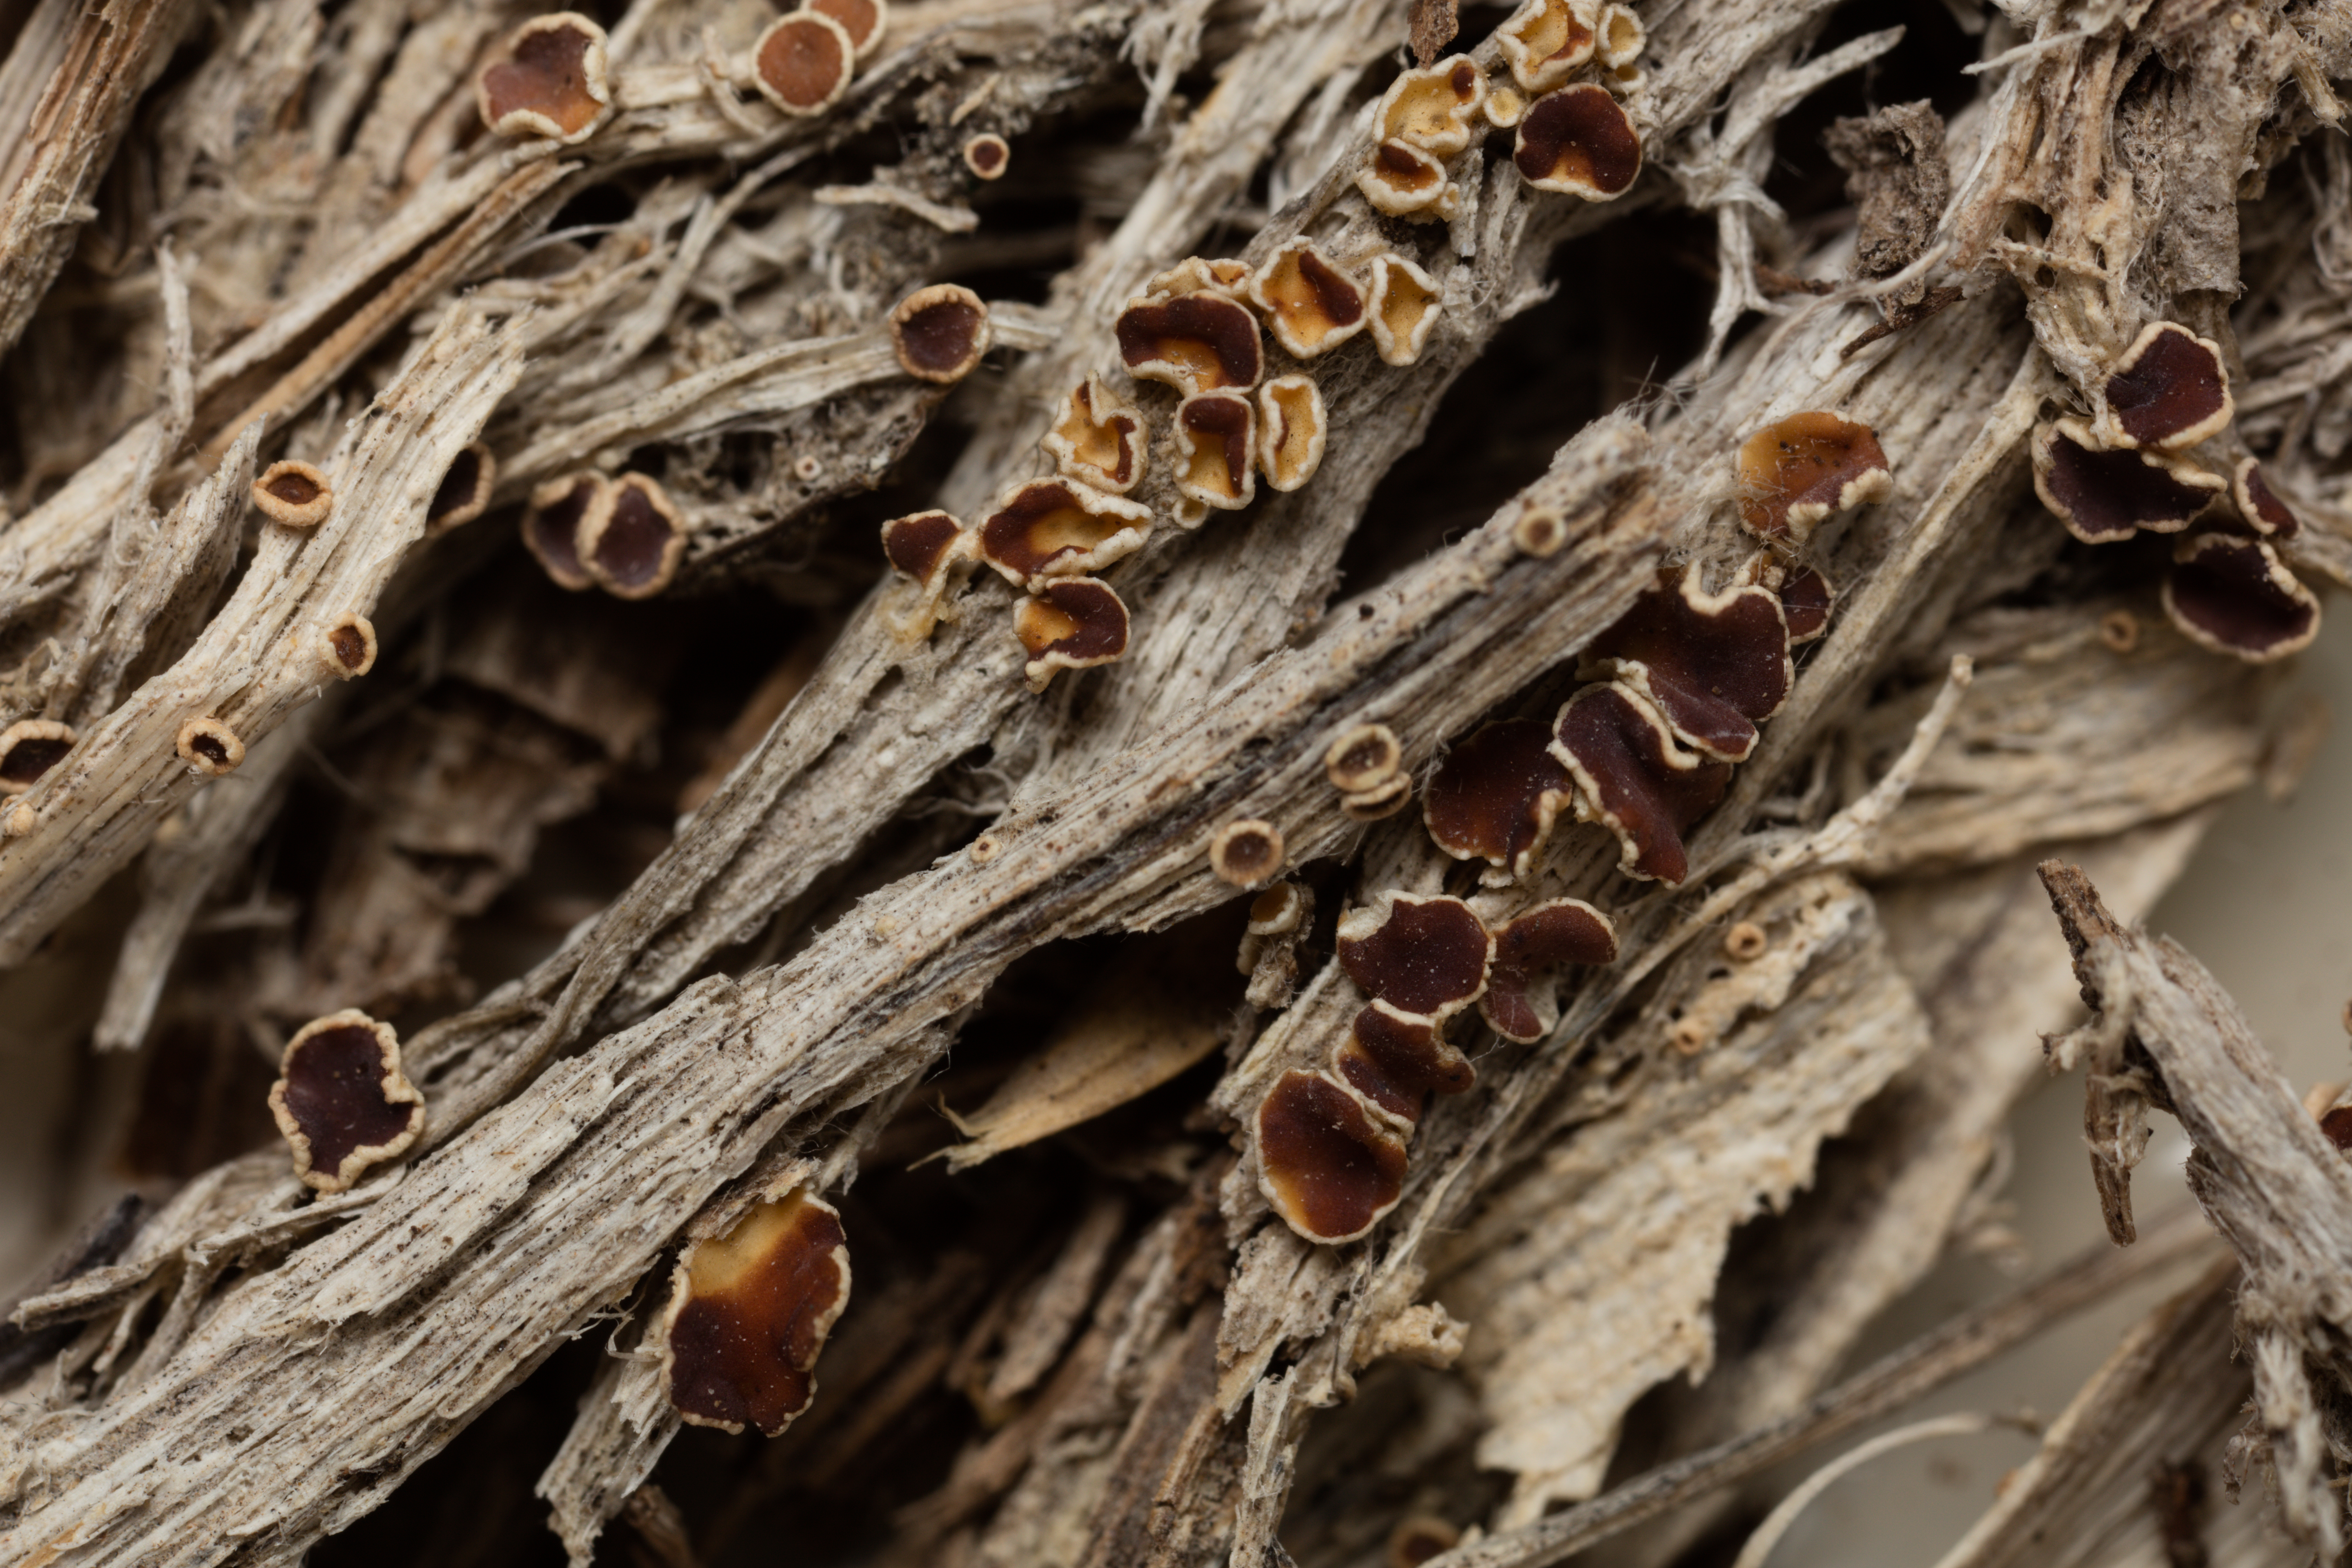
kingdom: Fungi
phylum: Ascomycota
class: Lecanoromycetes
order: Lecanorales
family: Lecanoraceae
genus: Lecanora
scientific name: Lecanora epibryon
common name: Mossbane rim lichen
